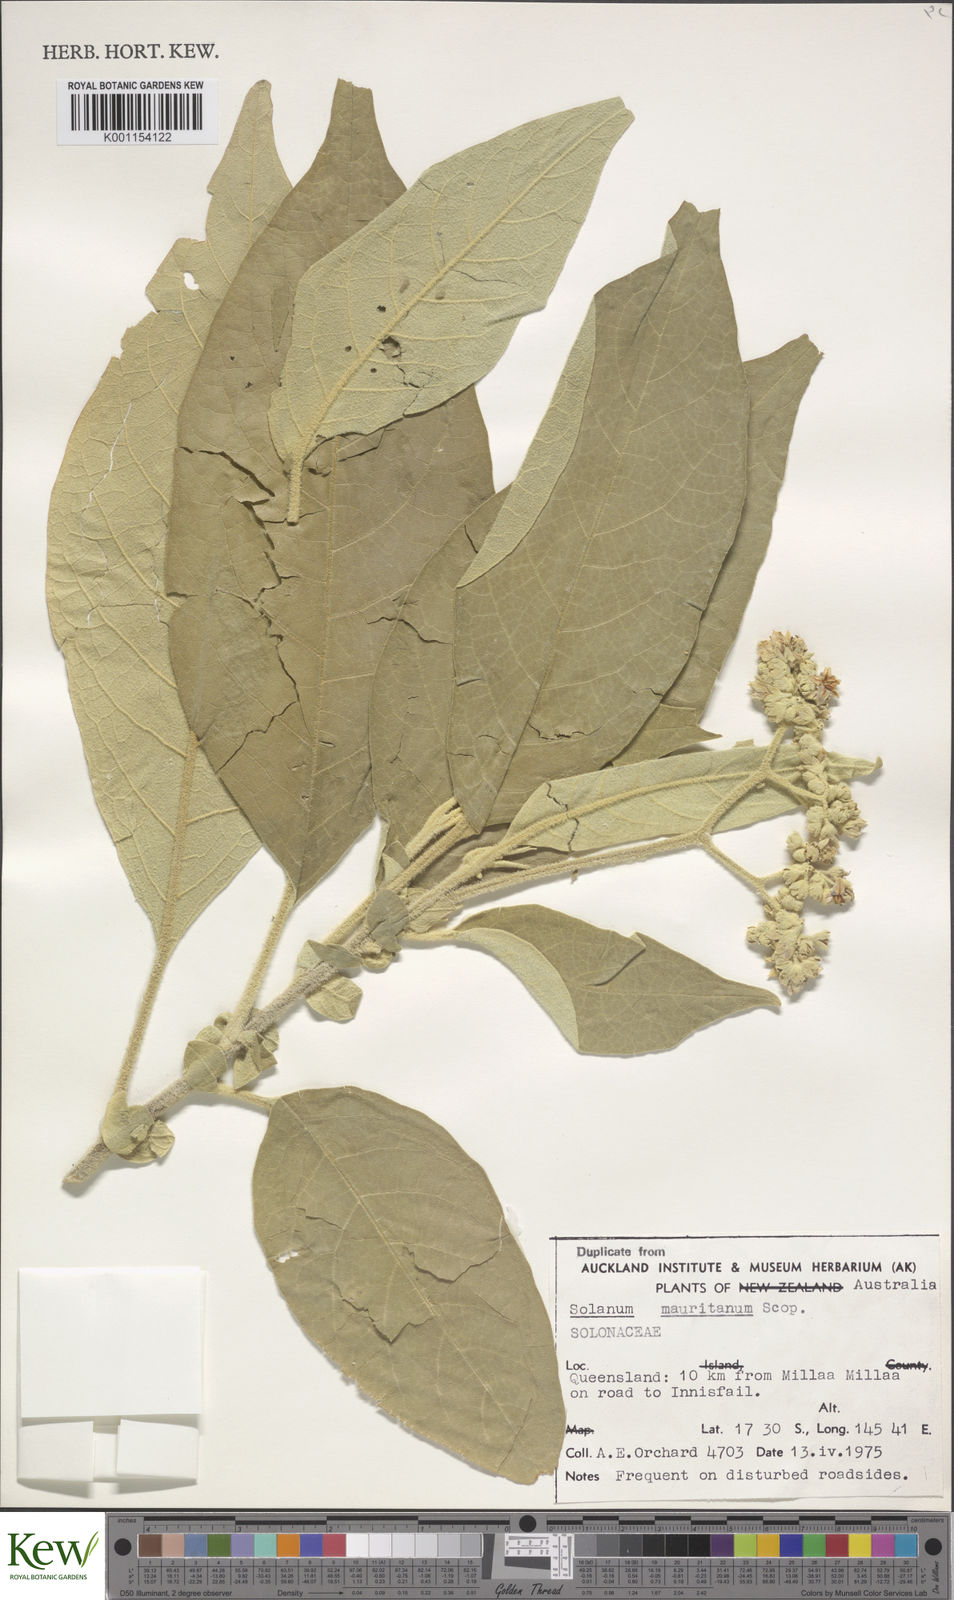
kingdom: Plantae
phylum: Tracheophyta
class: Magnoliopsida
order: Solanales
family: Solanaceae
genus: Solanum
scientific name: Solanum mauritianum
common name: Earleaf nightshade
